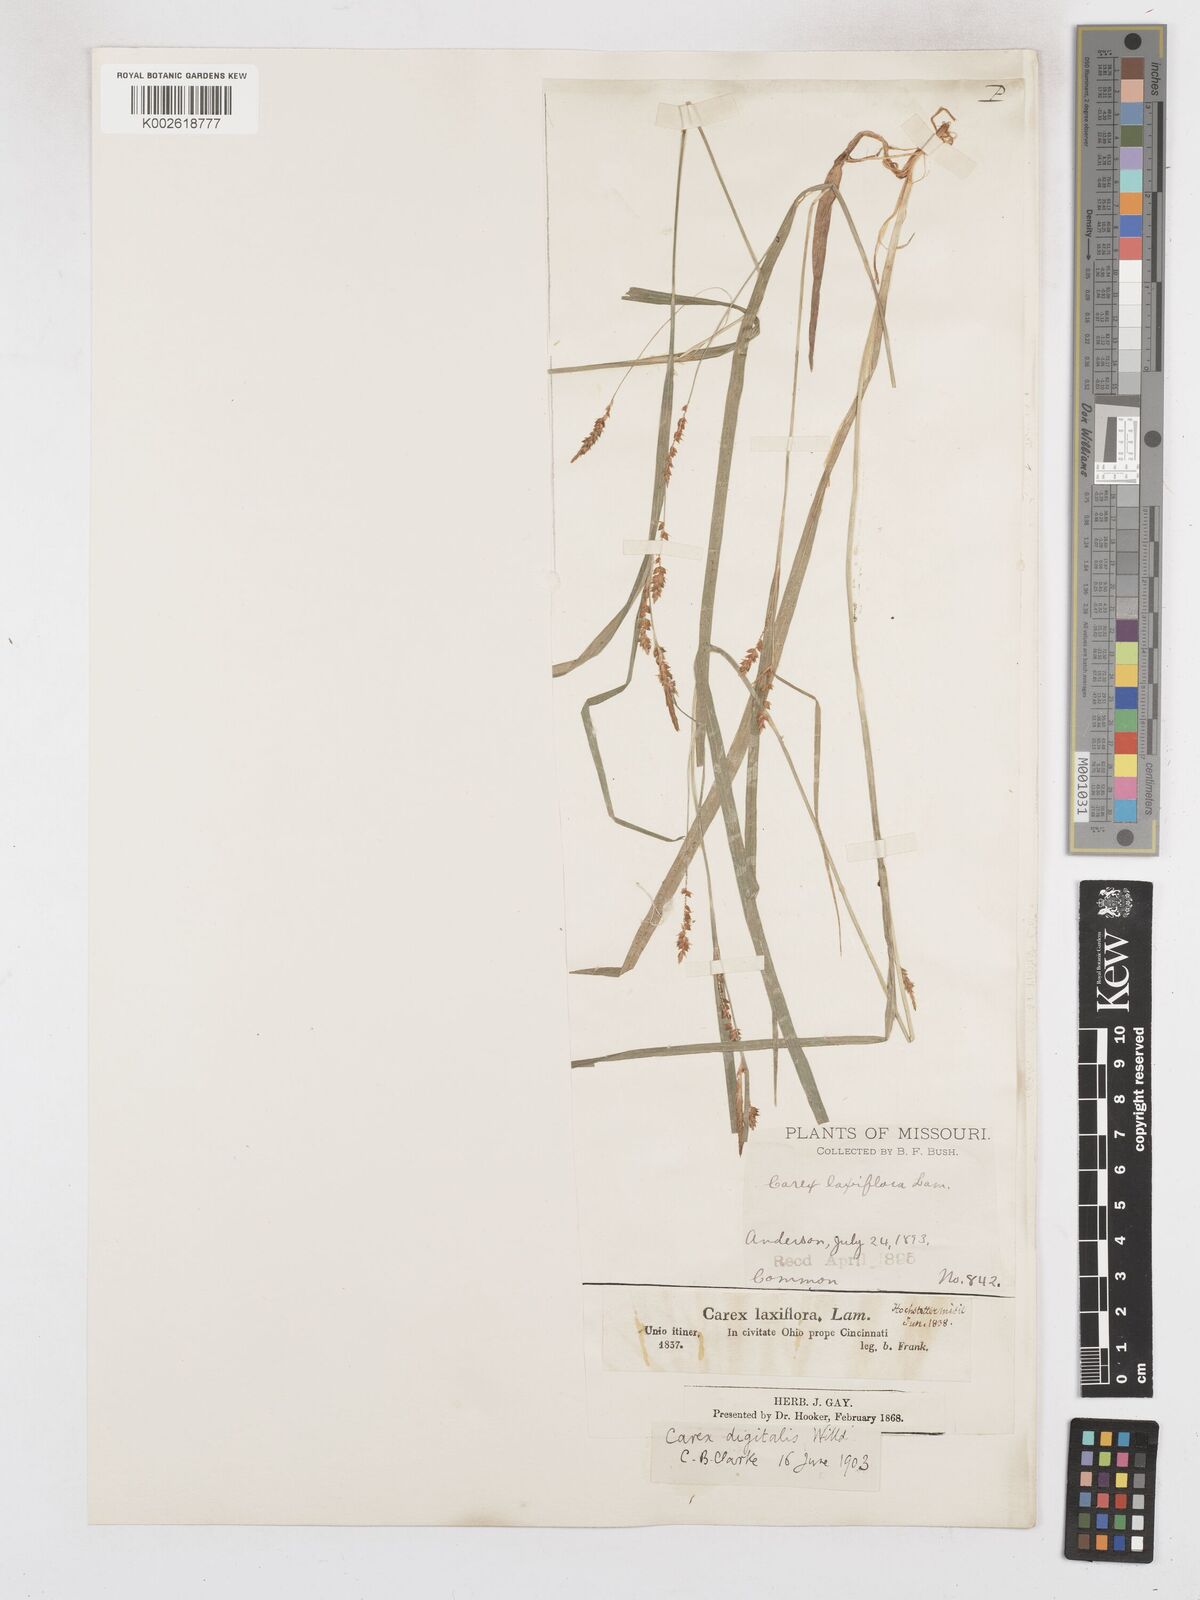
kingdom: Plantae
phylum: Tracheophyta
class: Liliopsida
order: Poales
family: Cyperaceae
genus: Carex
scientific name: Carex digitalis
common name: Slender wood sedge
